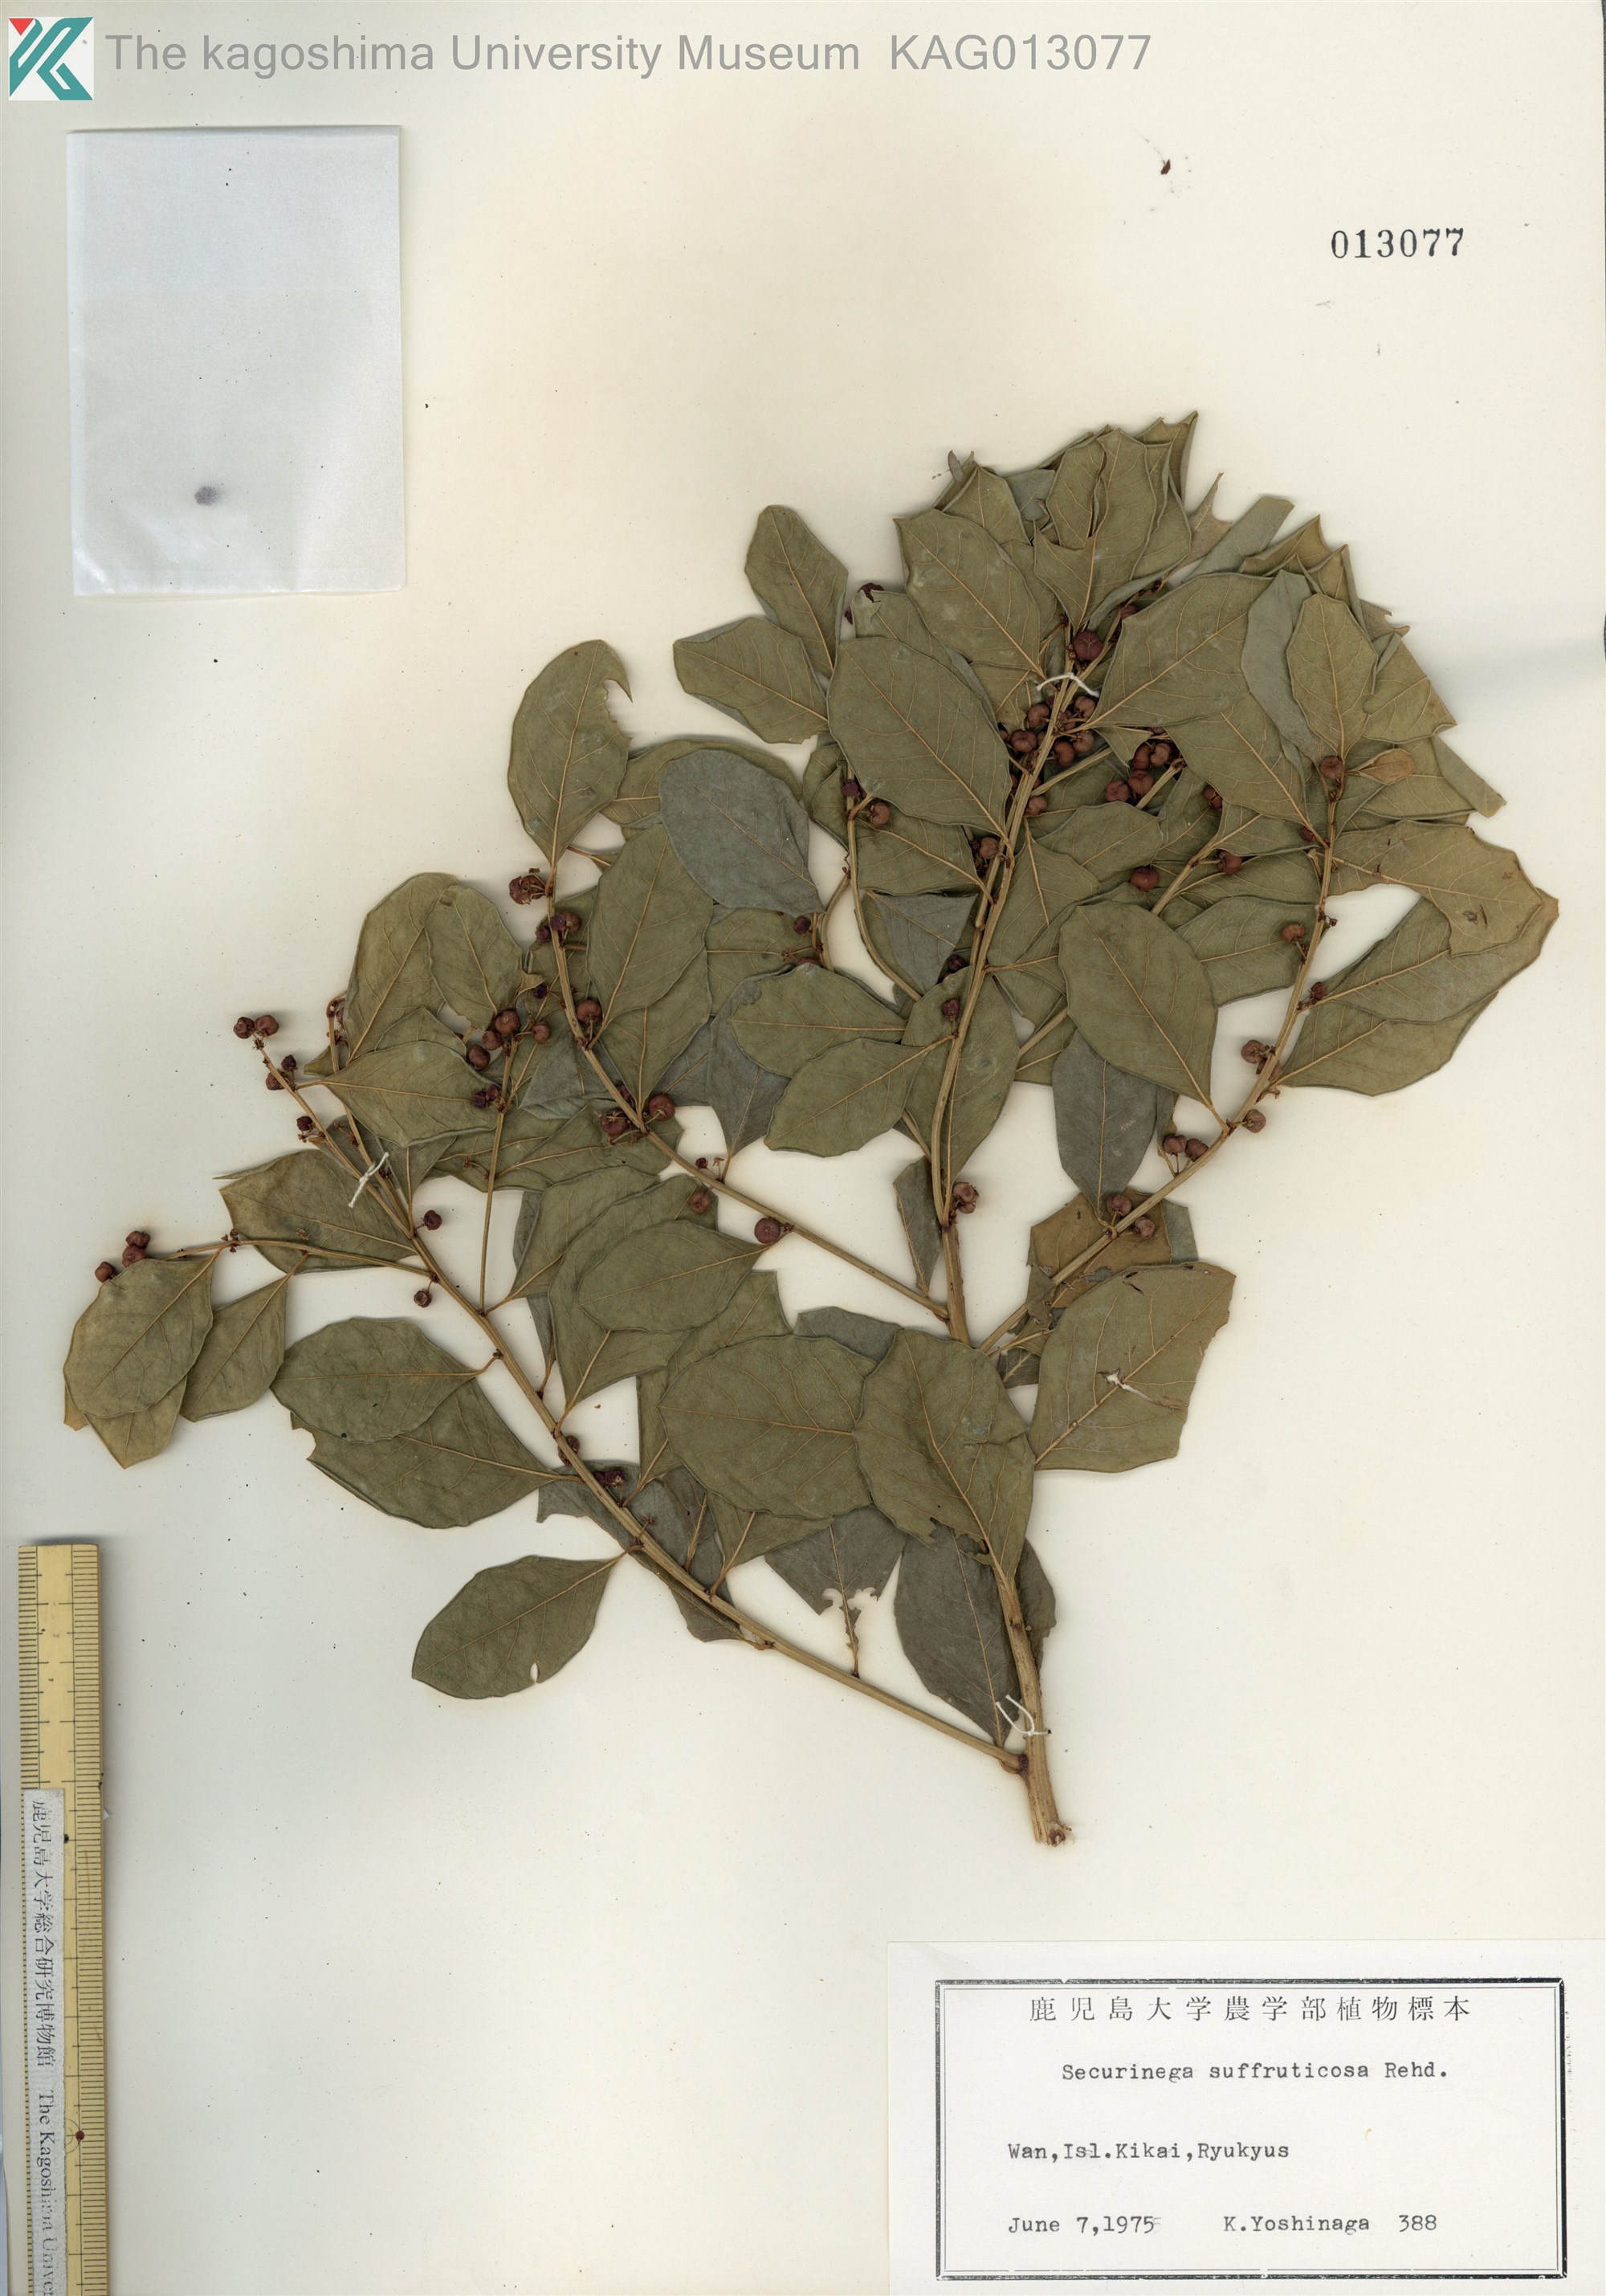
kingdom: Plantae
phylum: Tracheophyta
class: Magnoliopsida
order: Malpighiales
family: Phyllanthaceae
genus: Flueggea
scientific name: Flueggea suffruticosa
